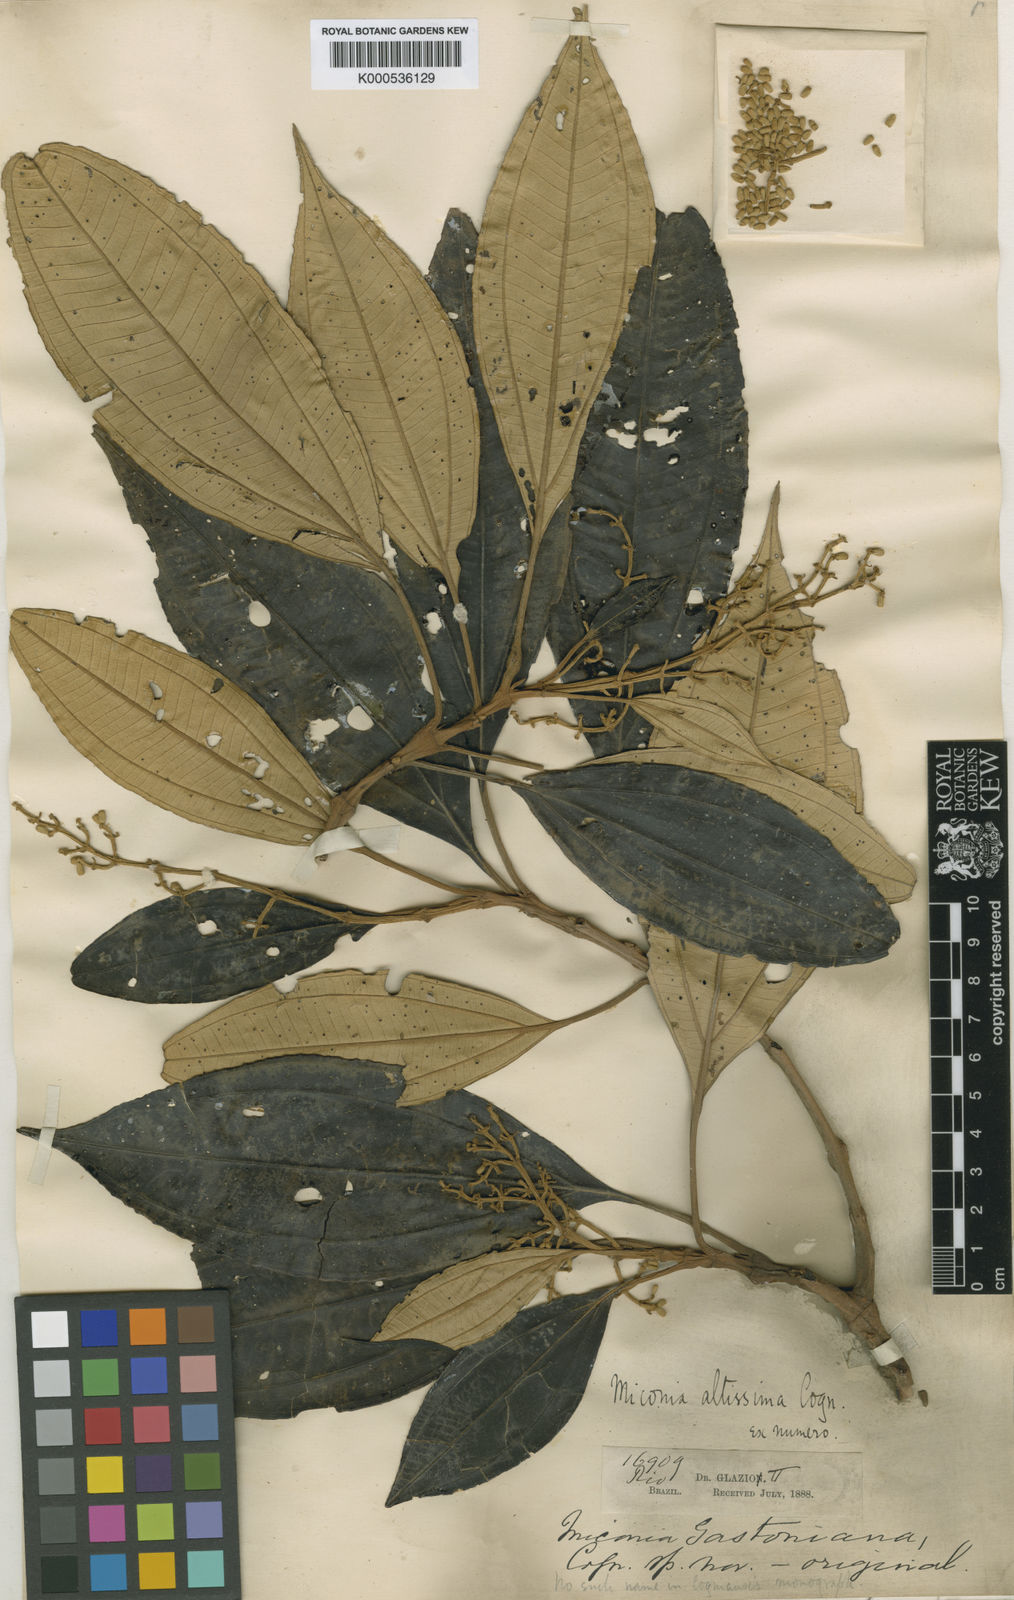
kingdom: Plantae
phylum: Tracheophyta
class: Magnoliopsida
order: Myrtales
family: Melastomataceae
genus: Miconia
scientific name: Miconia formosa
